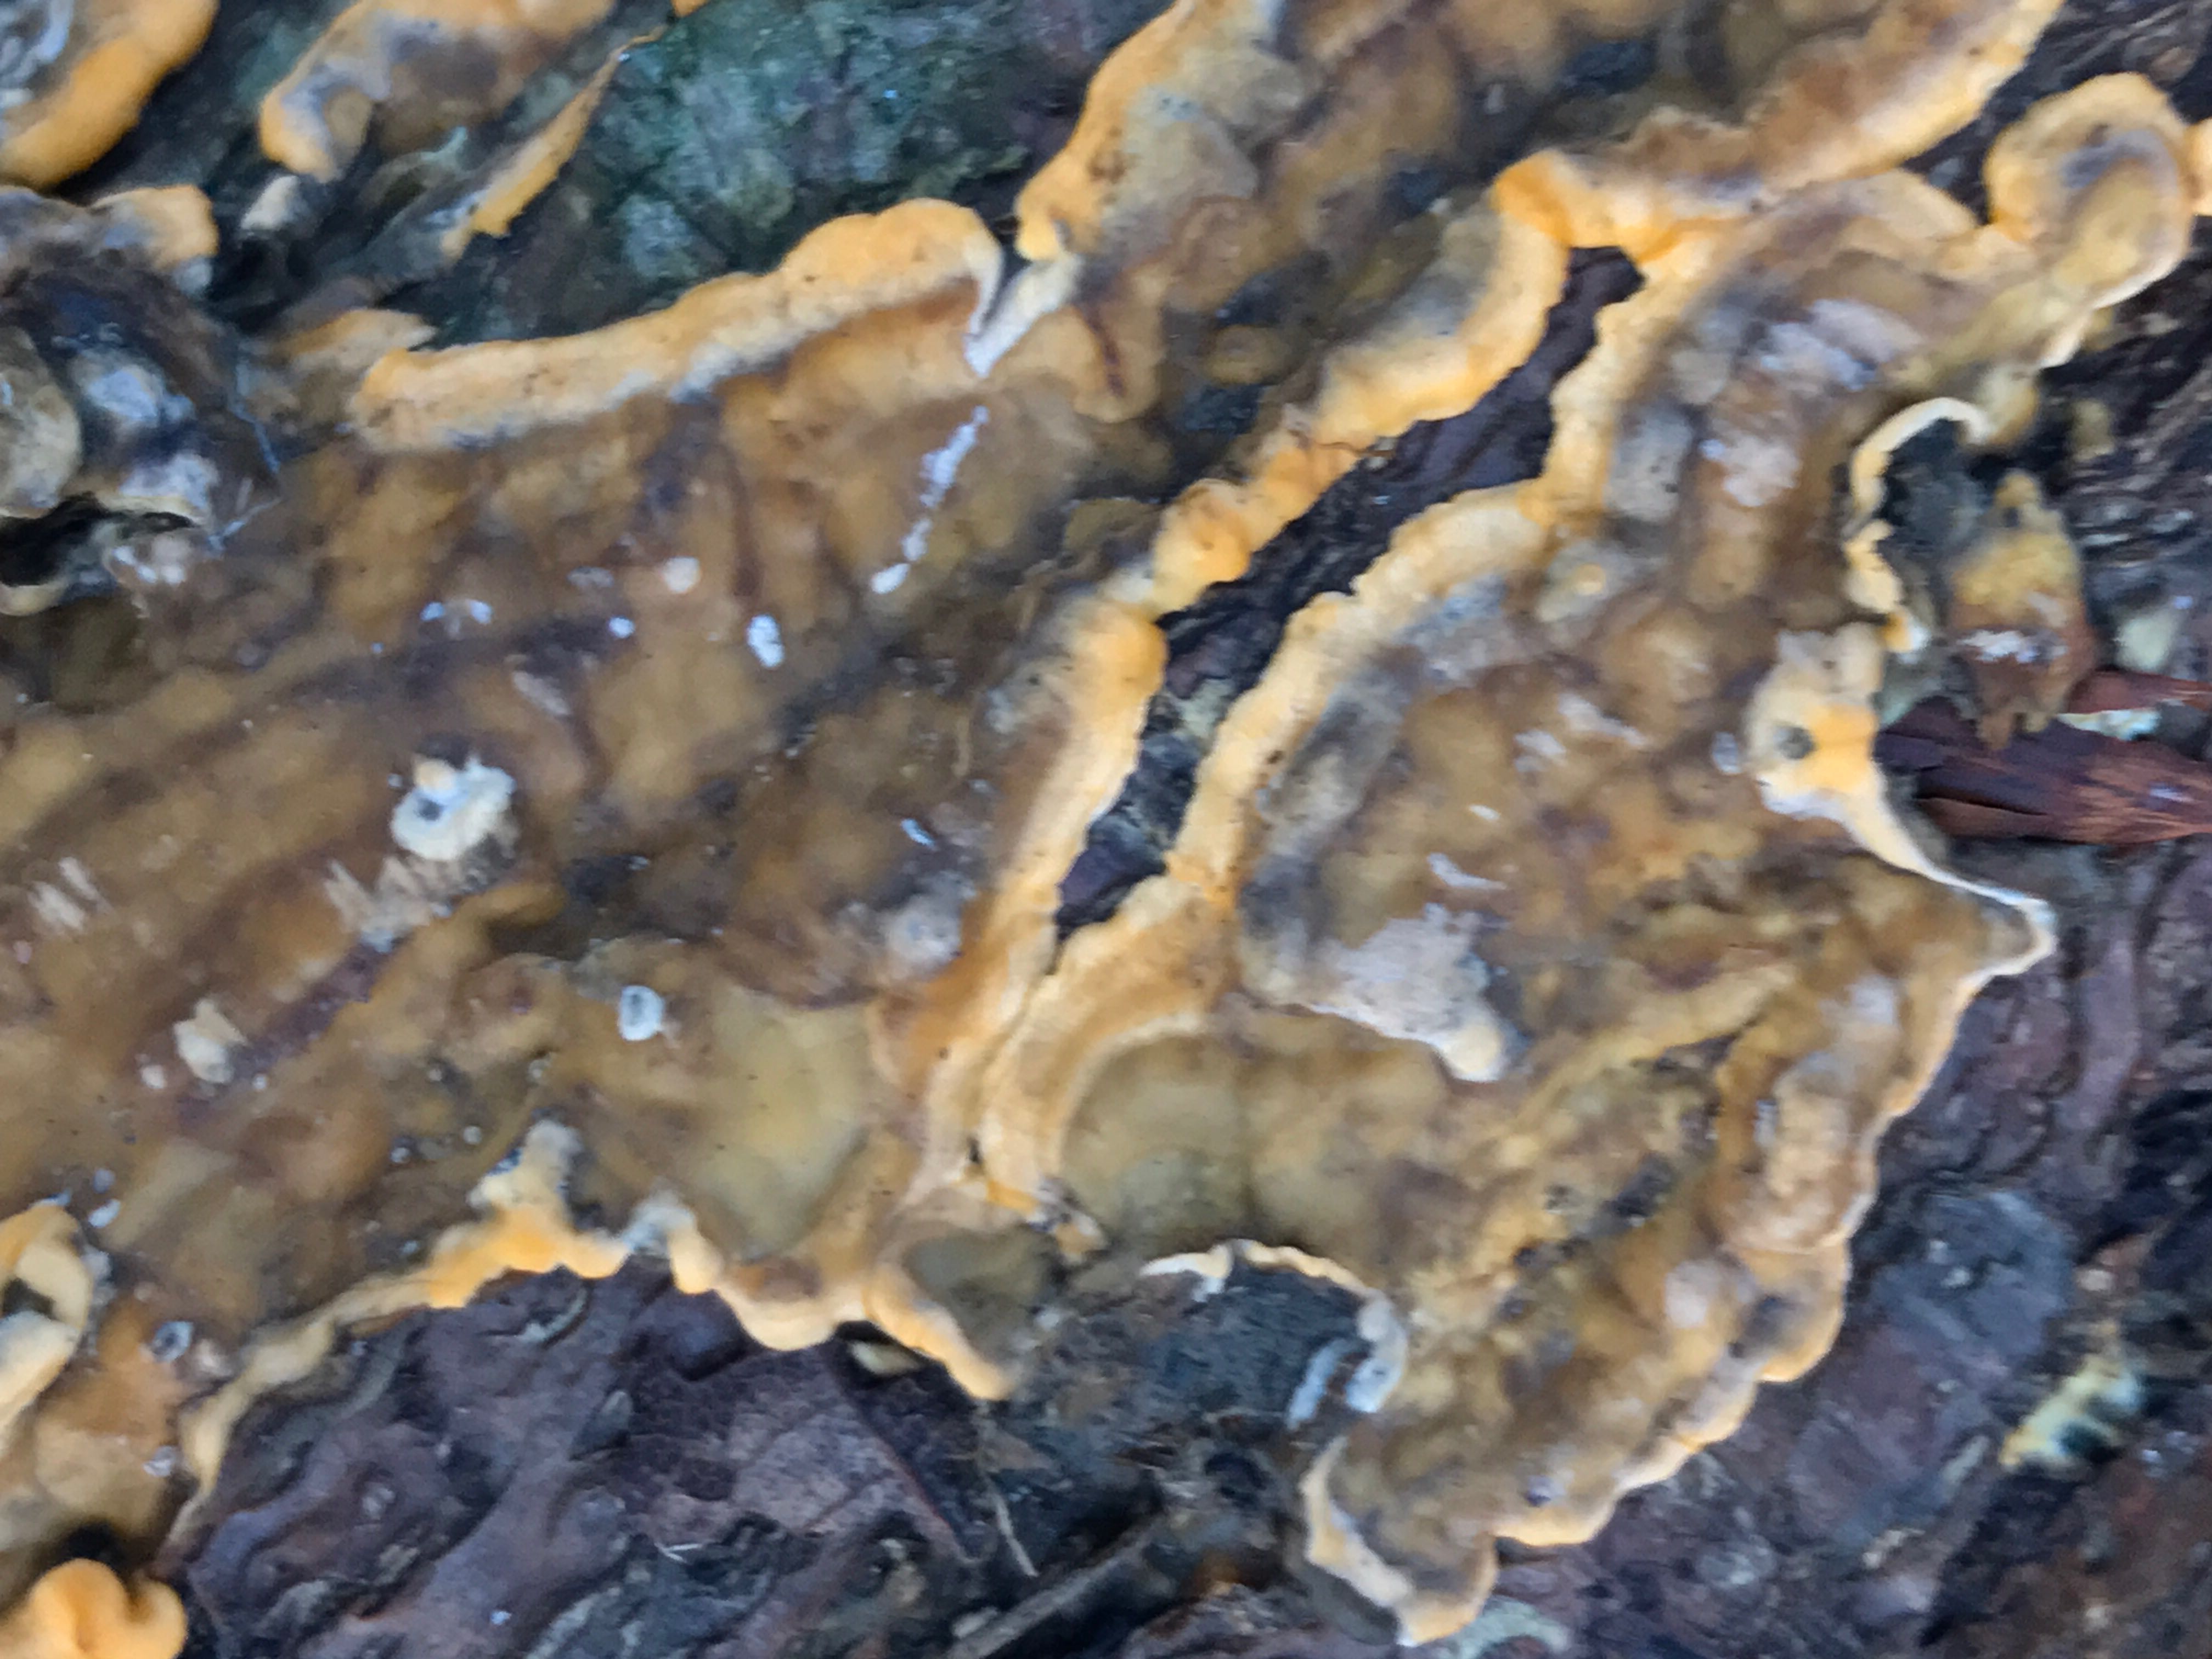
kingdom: Fungi
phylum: Basidiomycota
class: Agaricomycetes
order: Russulales
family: Stereaceae
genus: Stereum
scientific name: Stereum hirsutum
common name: håret lædersvamp
